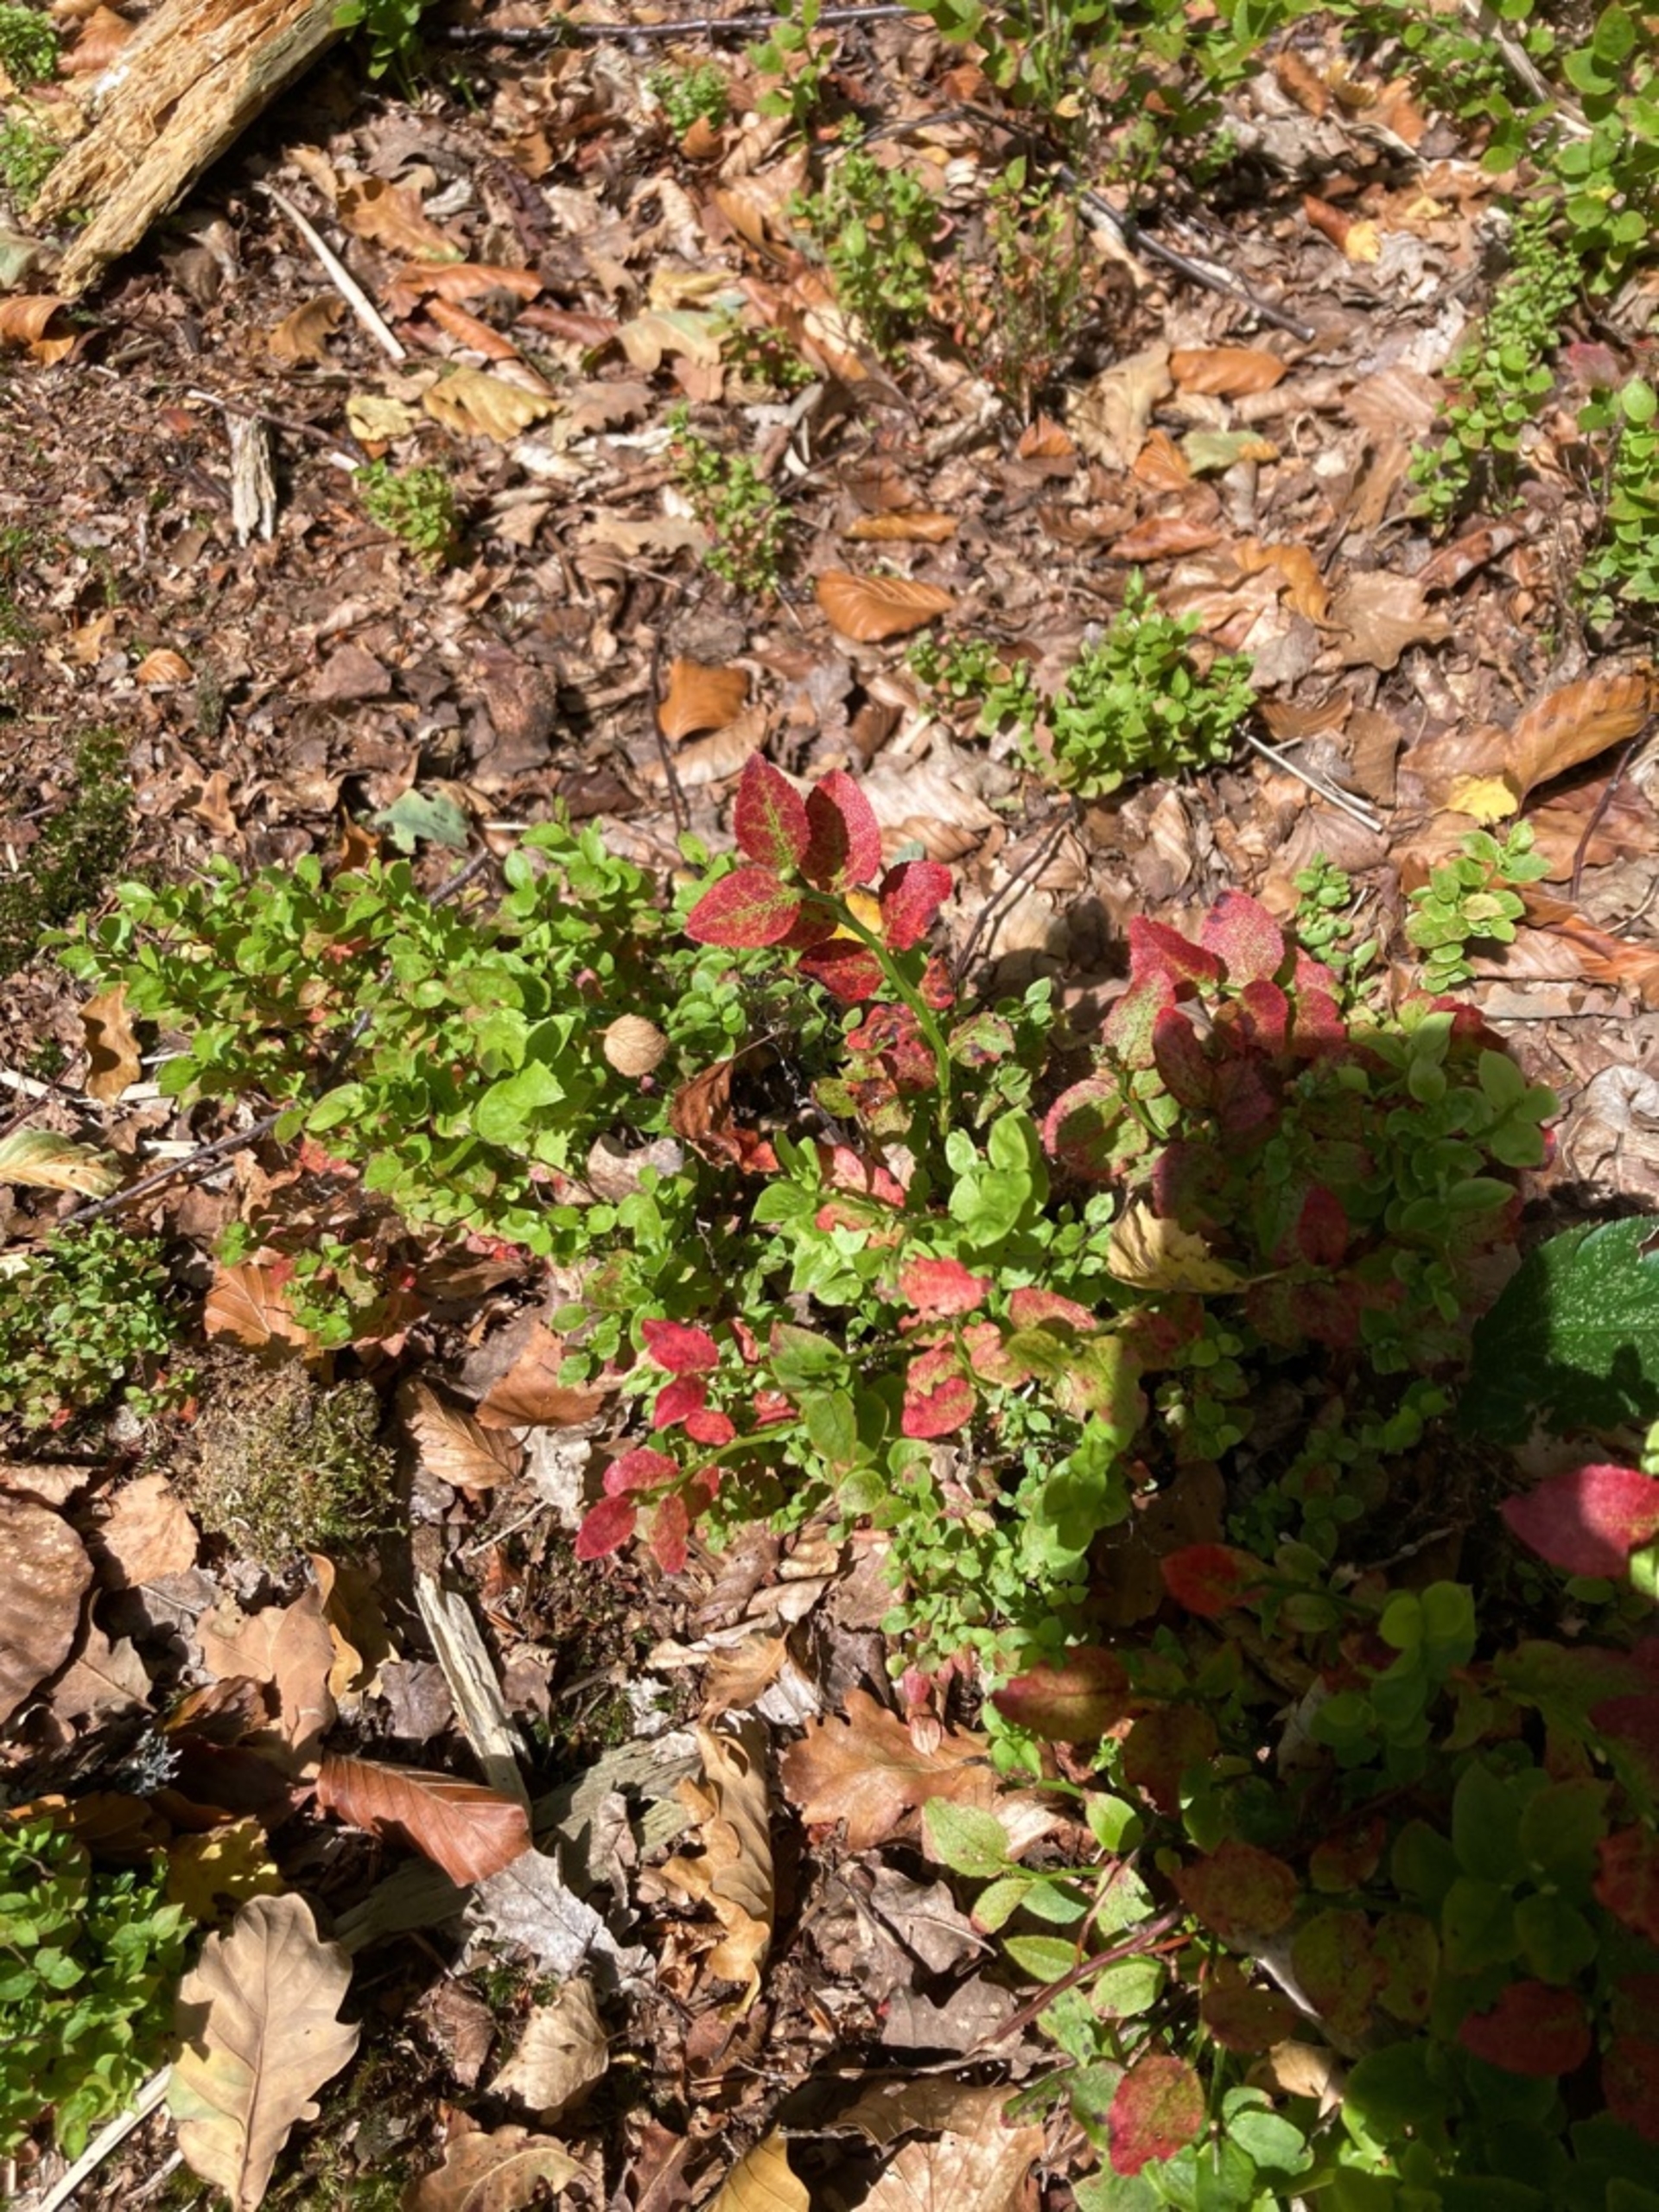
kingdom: Plantae
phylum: Tracheophyta
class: Magnoliopsida
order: Ericales
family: Ericaceae
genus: Vaccinium
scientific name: Vaccinium myrtillus
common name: Blåbær
